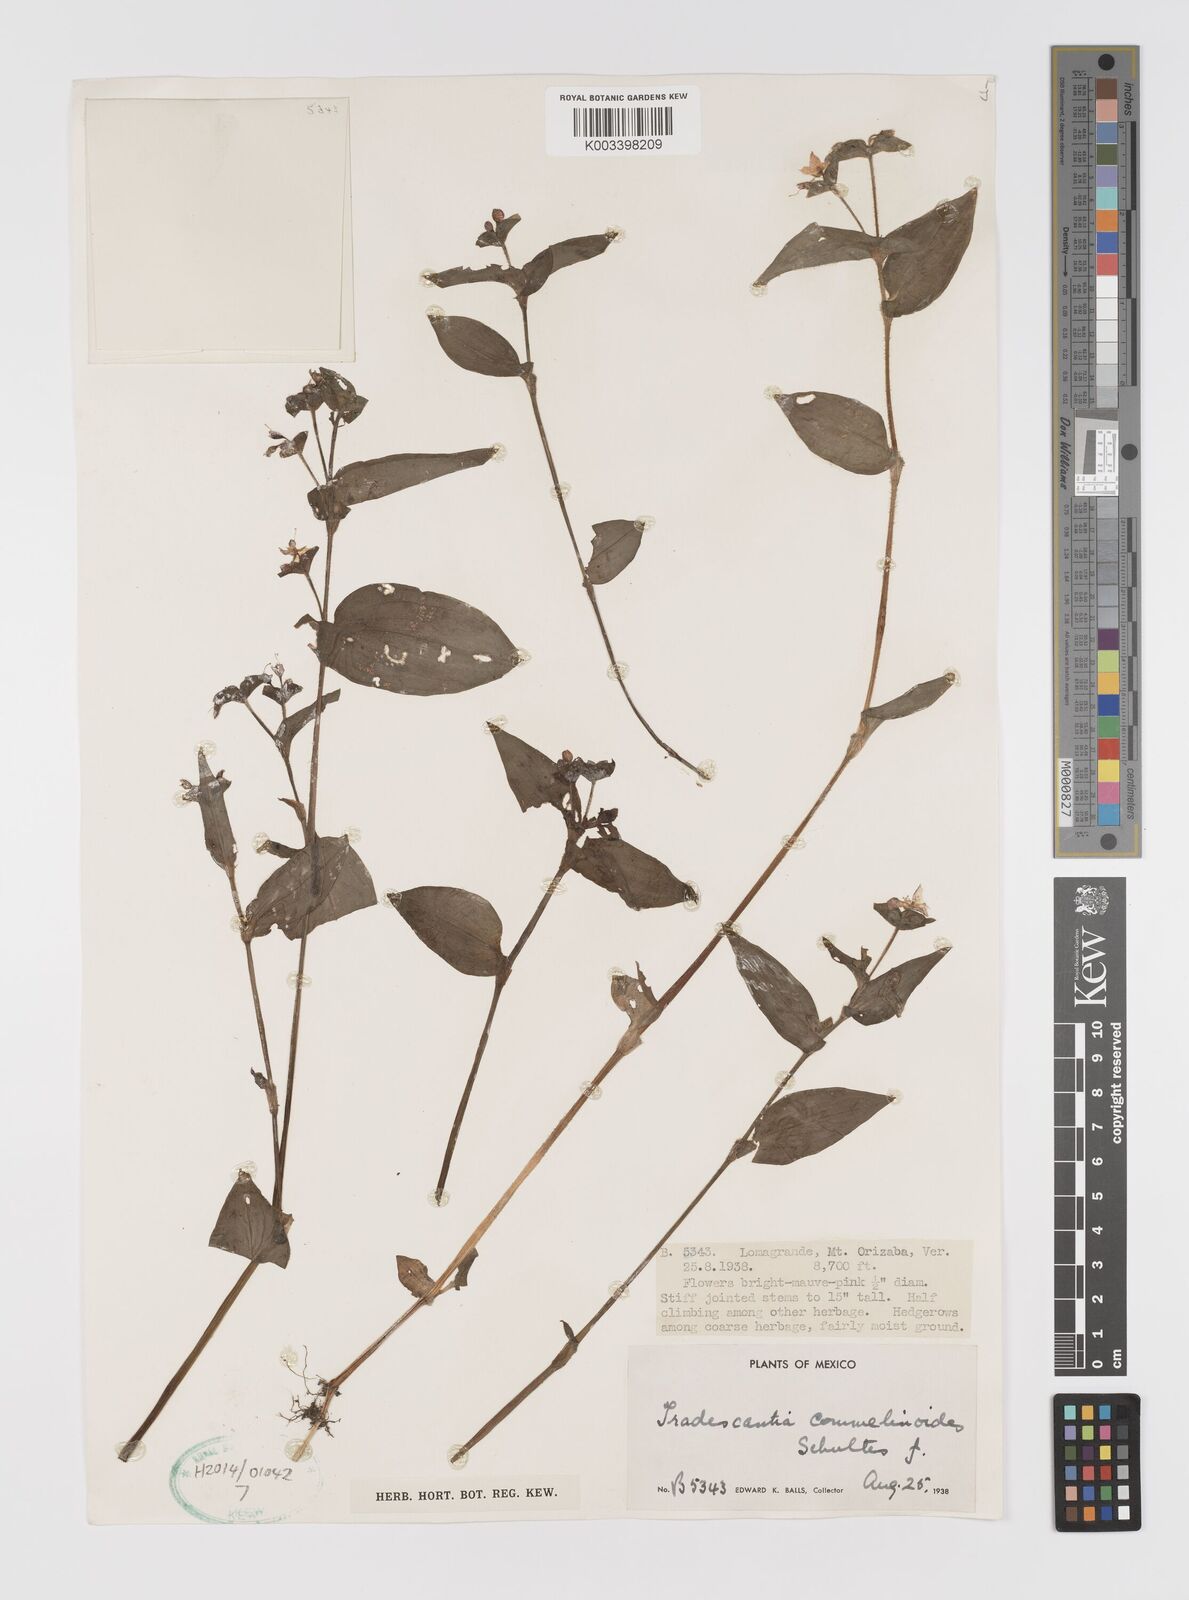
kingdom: Plantae
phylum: Tracheophyta
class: Liliopsida
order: Commelinales
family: Commelinaceae
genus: Tradescantia
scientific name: Tradescantia commelinoides
